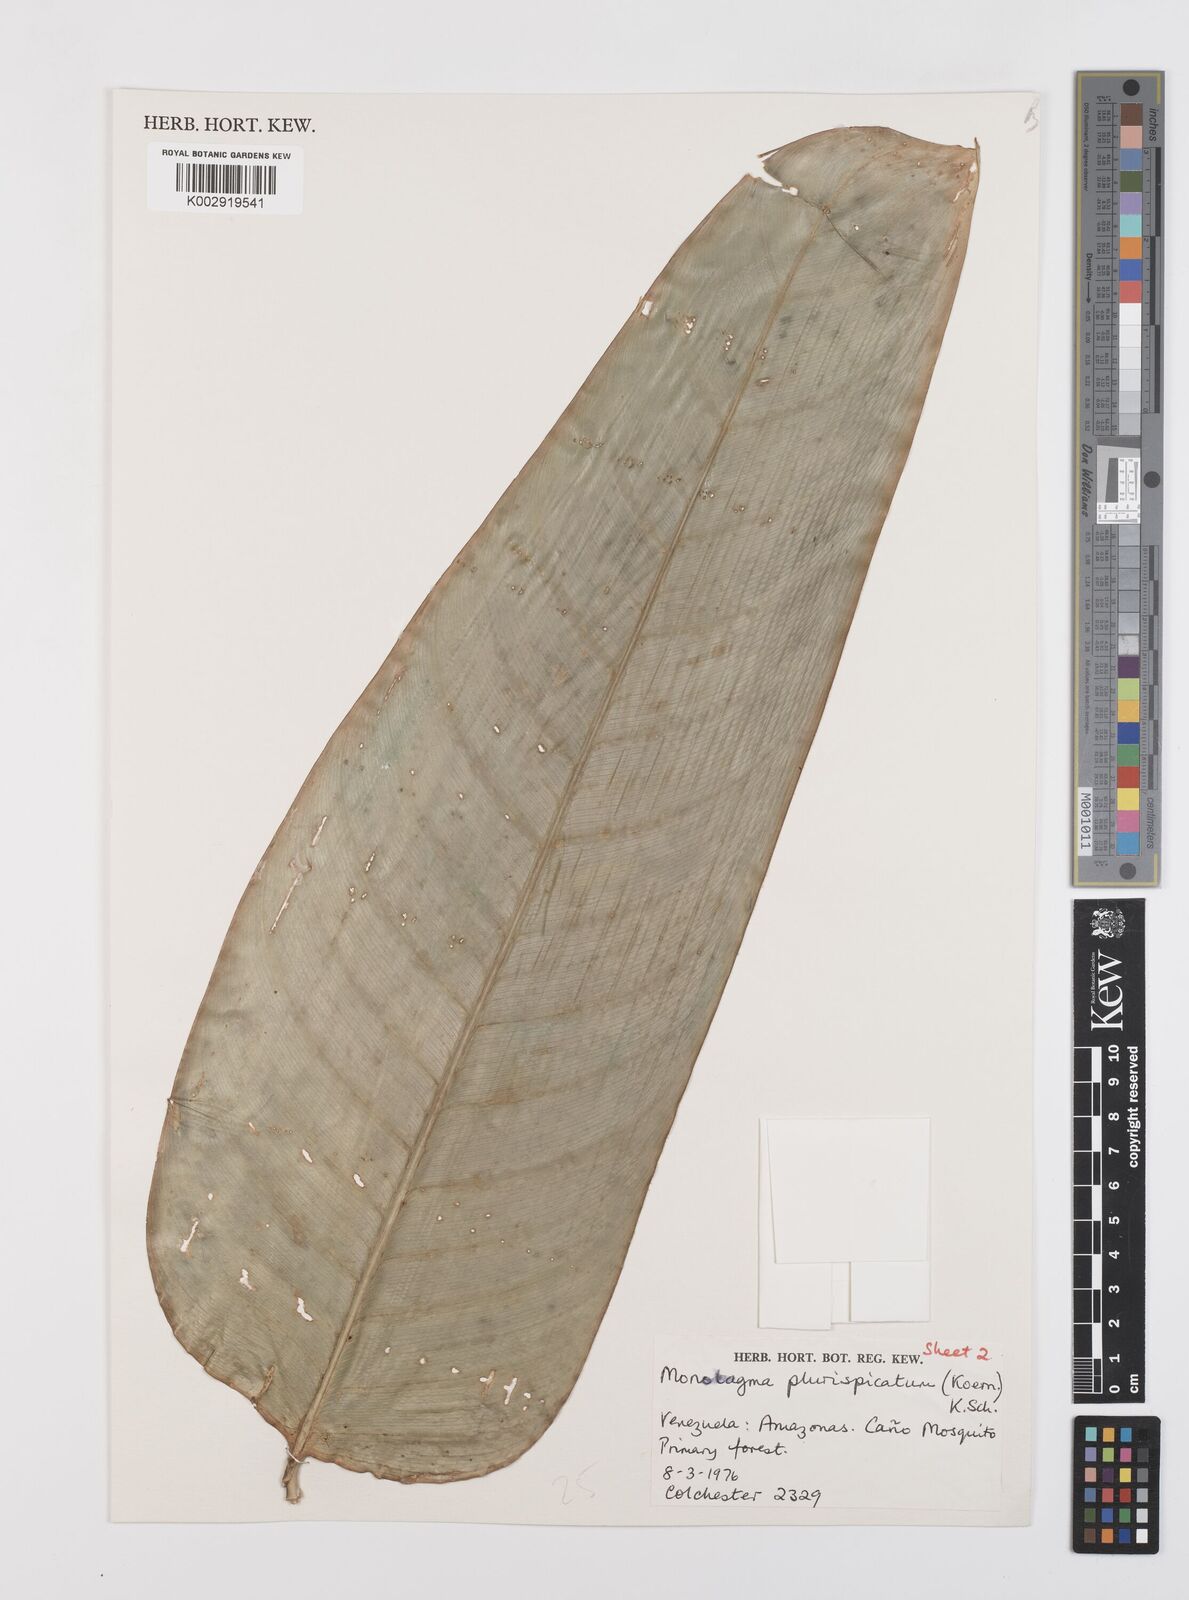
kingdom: Plantae
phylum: Tracheophyta
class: Liliopsida
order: Zingiberales
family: Marantaceae
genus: Monotagma
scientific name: Monotagma plurispicatum
